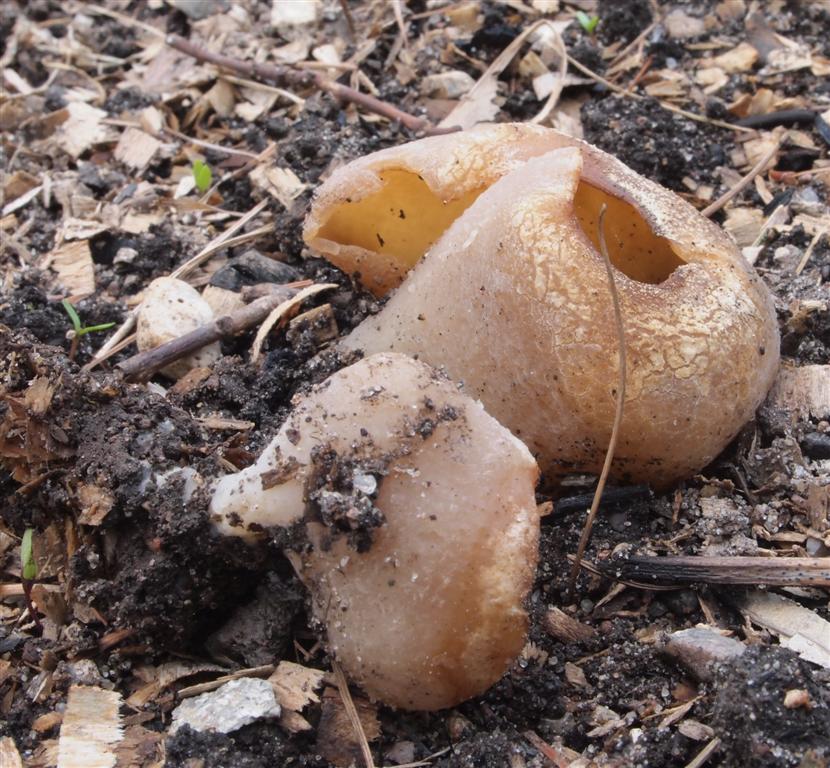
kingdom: Fungi
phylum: Ascomycota
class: Pezizomycetes
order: Pezizales
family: Pezizaceae
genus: Peziza
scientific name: Peziza vesiculosa
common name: blære-bægersvamp
